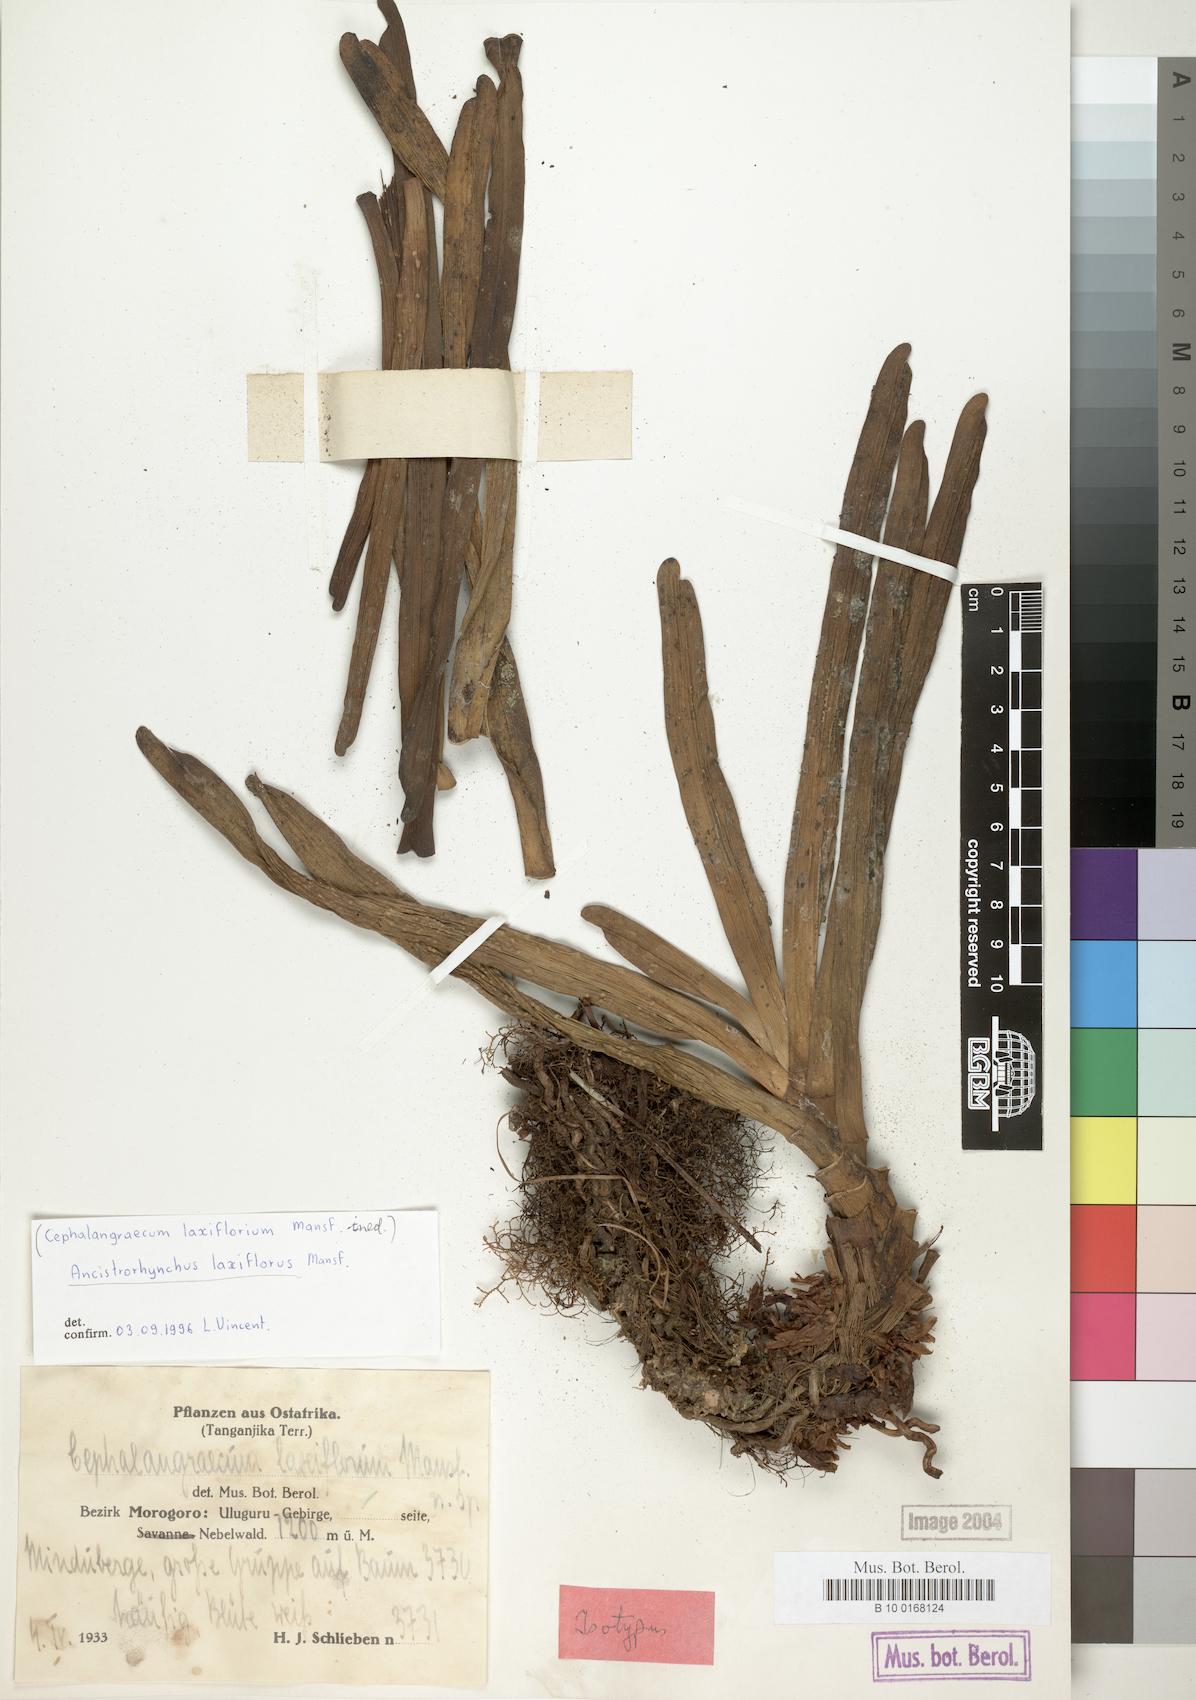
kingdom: Plantae
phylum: Tracheophyta
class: Liliopsida
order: Asparagales
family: Orchidaceae
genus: Ancistrorhynchus
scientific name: Ancistrorhynchus laxiflorus
